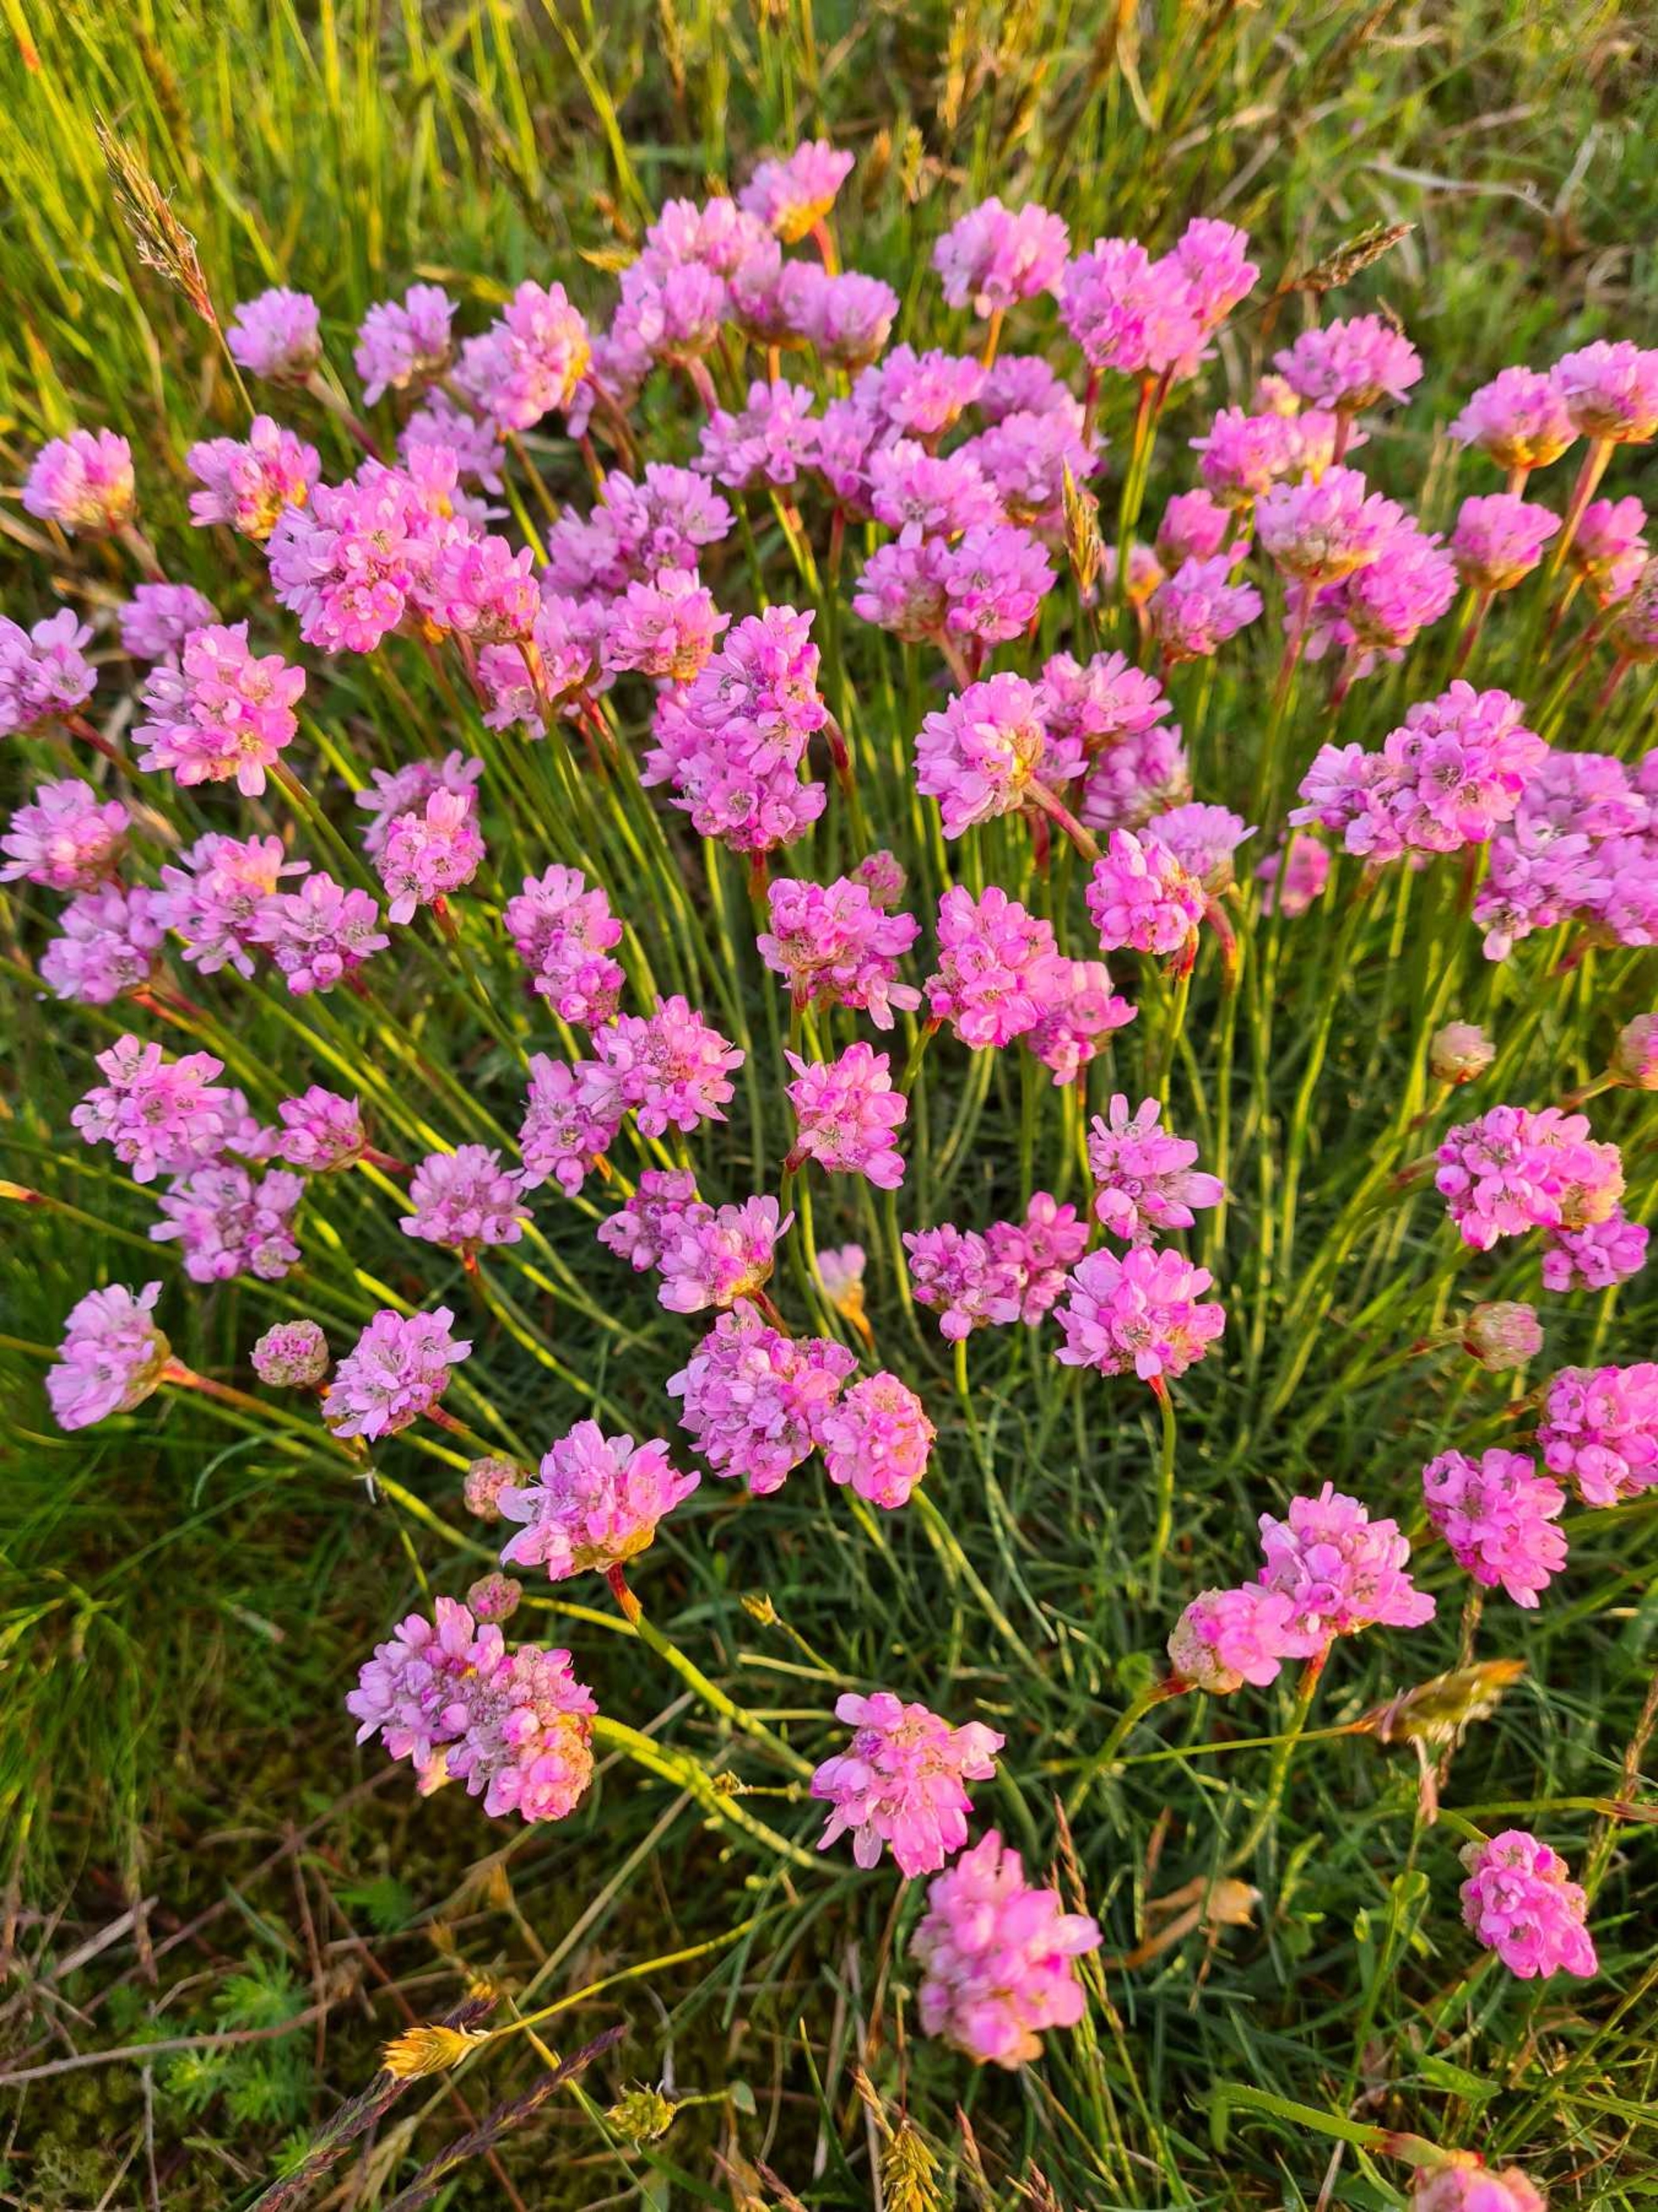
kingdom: Plantae
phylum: Tracheophyta
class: Magnoliopsida
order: Caryophyllales
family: Plumbaginaceae
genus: Armeria
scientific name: Armeria maritima
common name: Engelskgræs
